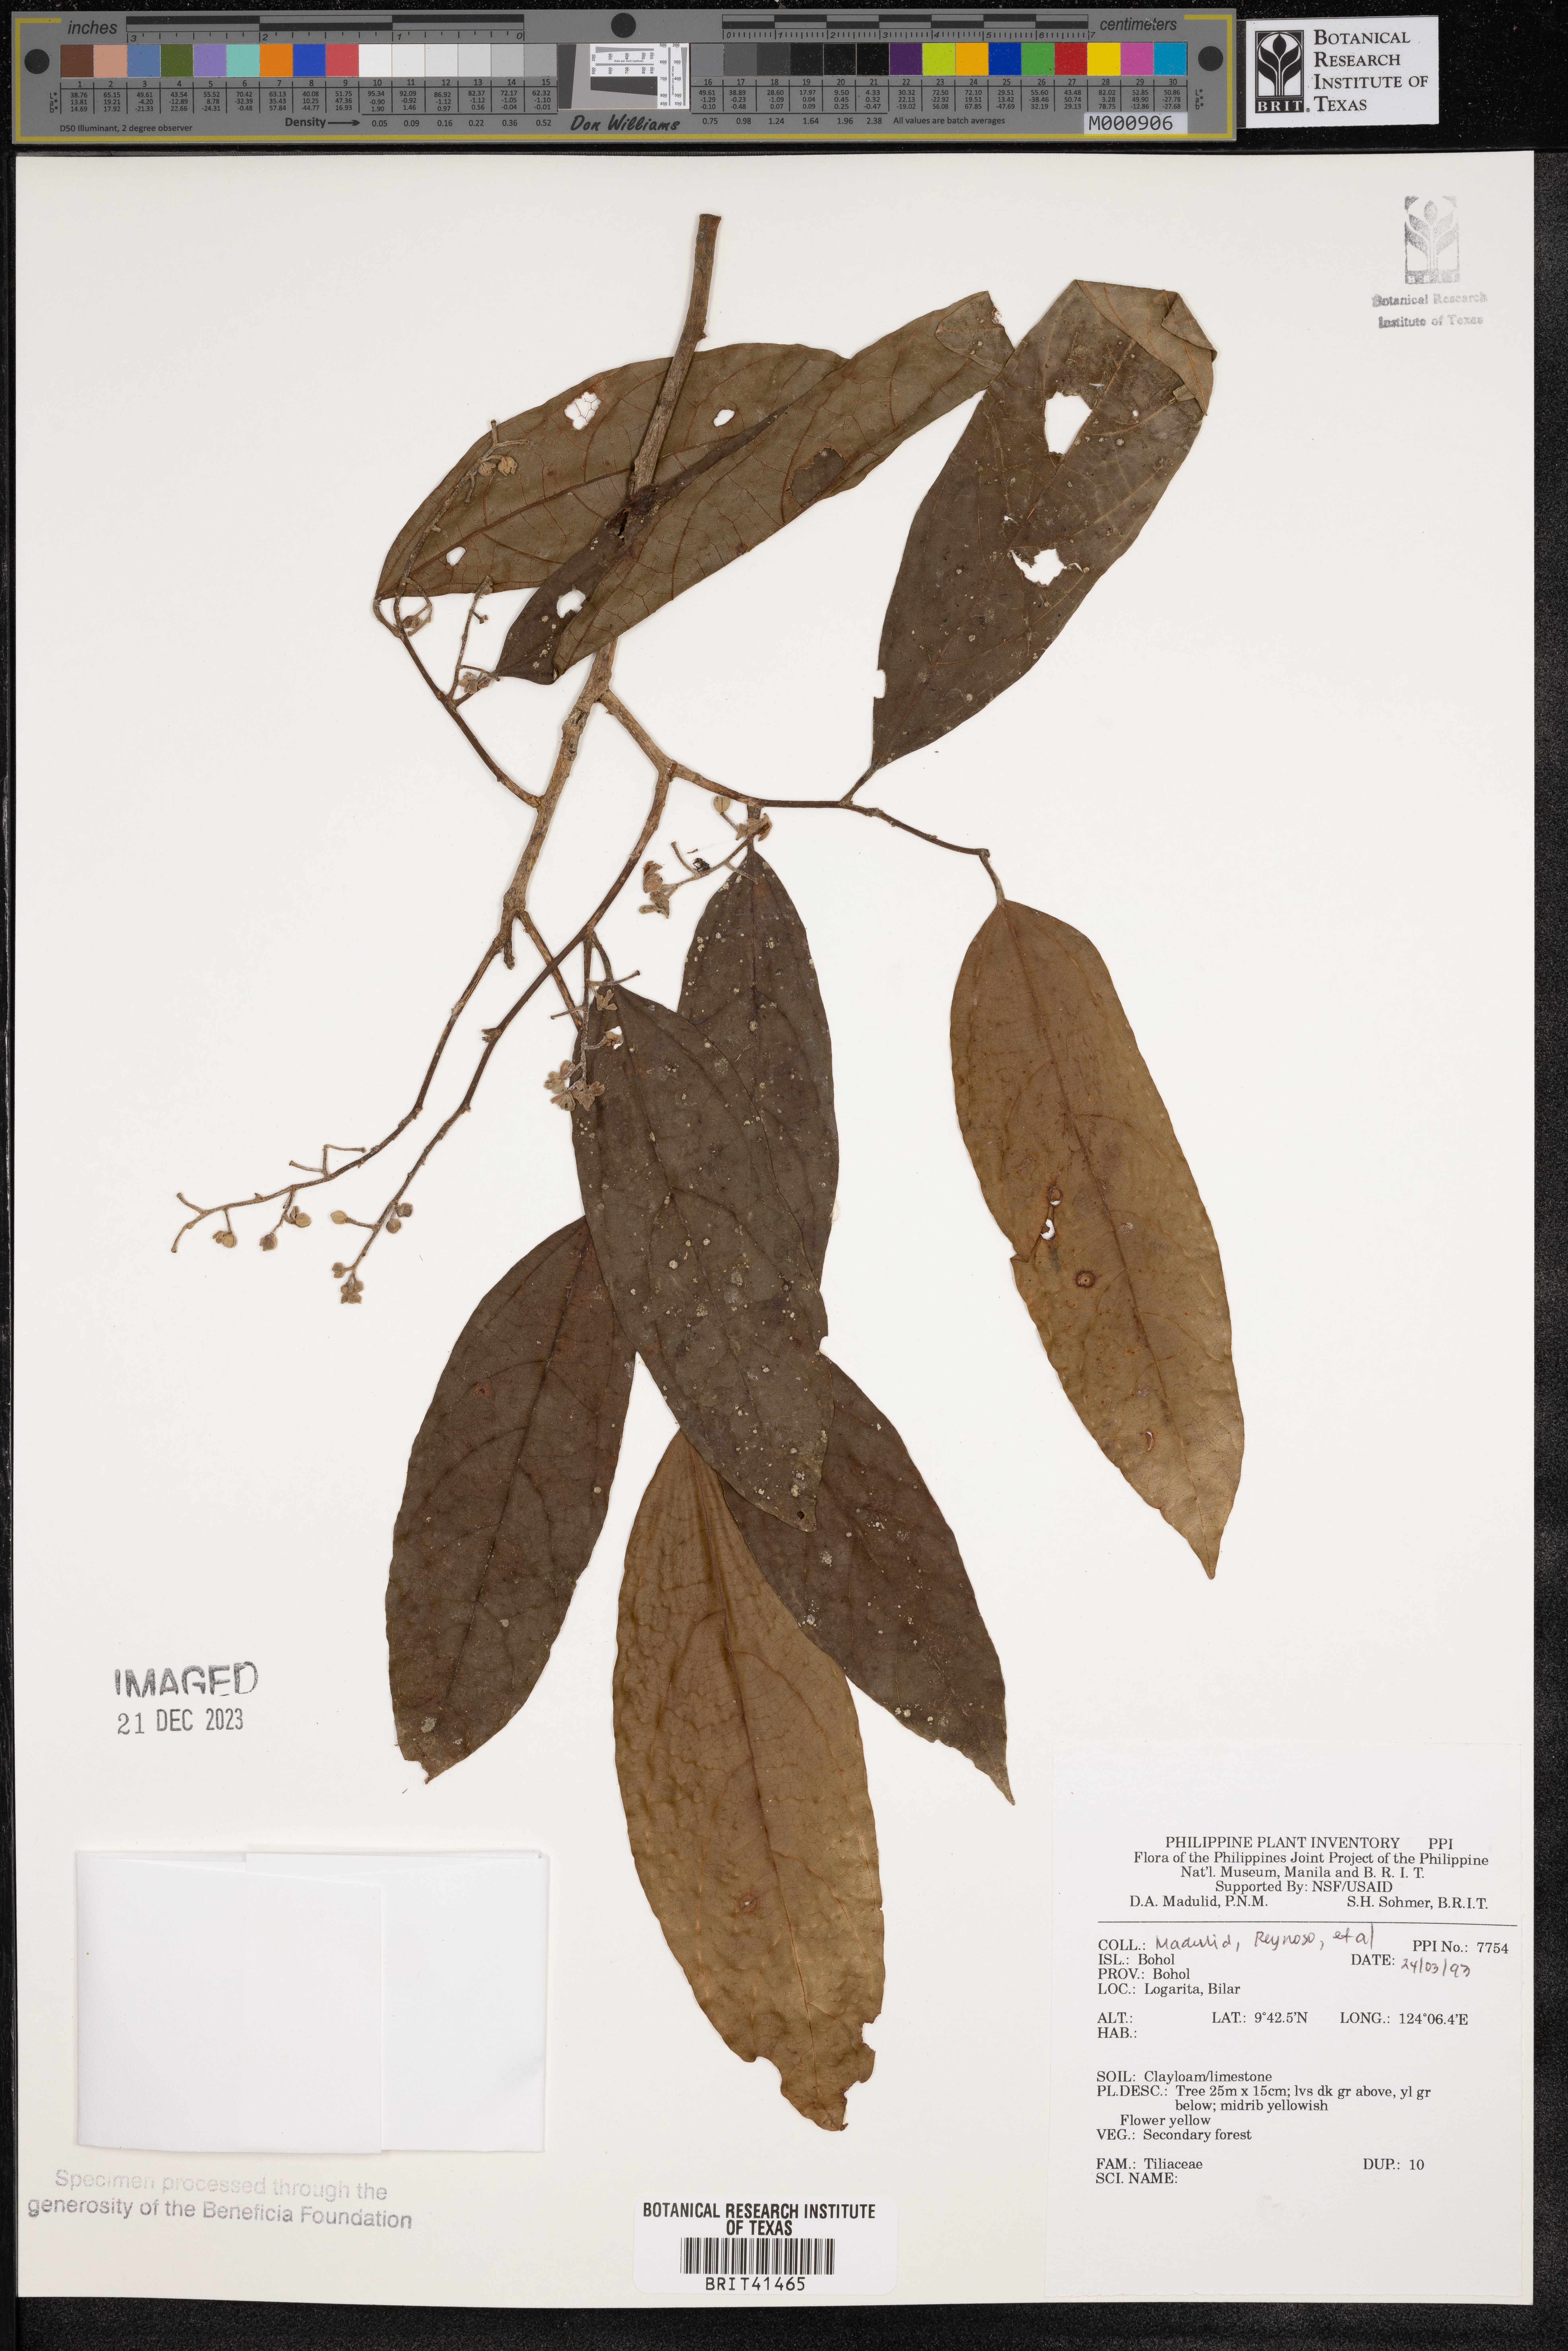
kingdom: Plantae
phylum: Tracheophyta
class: Magnoliopsida
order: Malvales
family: Tiliaceae
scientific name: Tiliaceae
